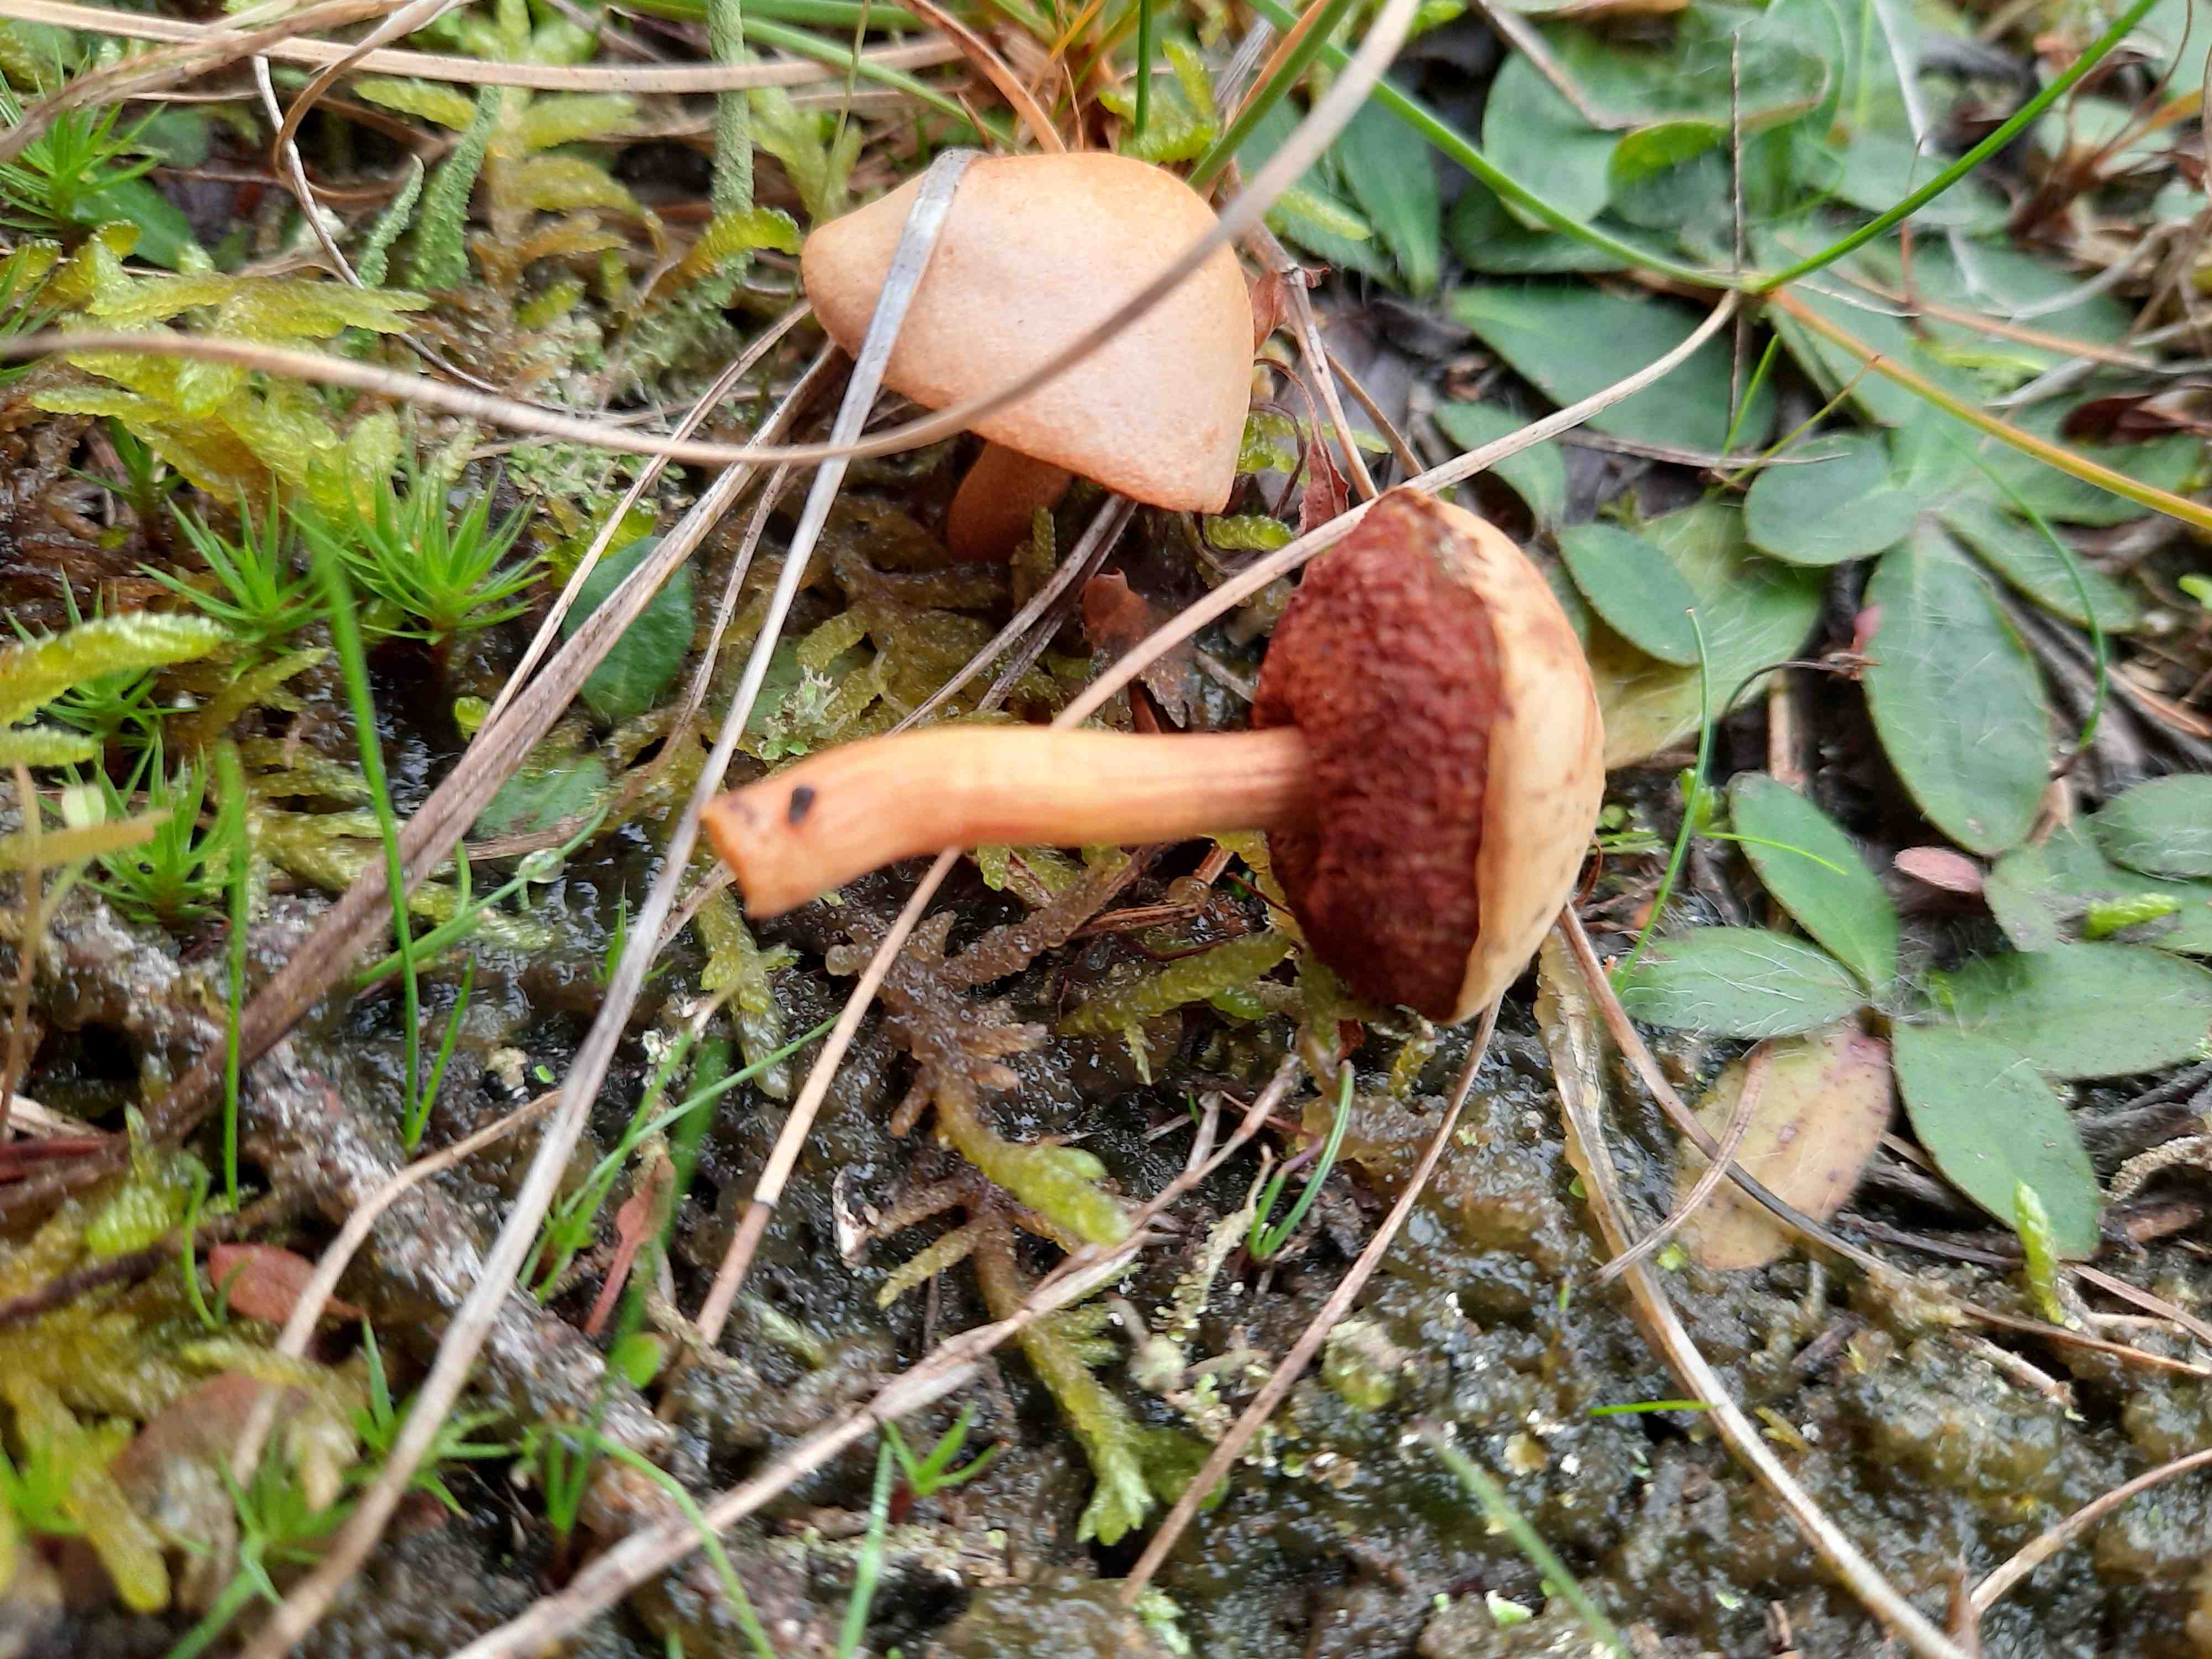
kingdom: Fungi
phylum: Basidiomycota
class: Agaricomycetes
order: Boletales
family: Boletaceae
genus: Chalciporus
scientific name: Chalciporus piperatus
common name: peberrørhat
